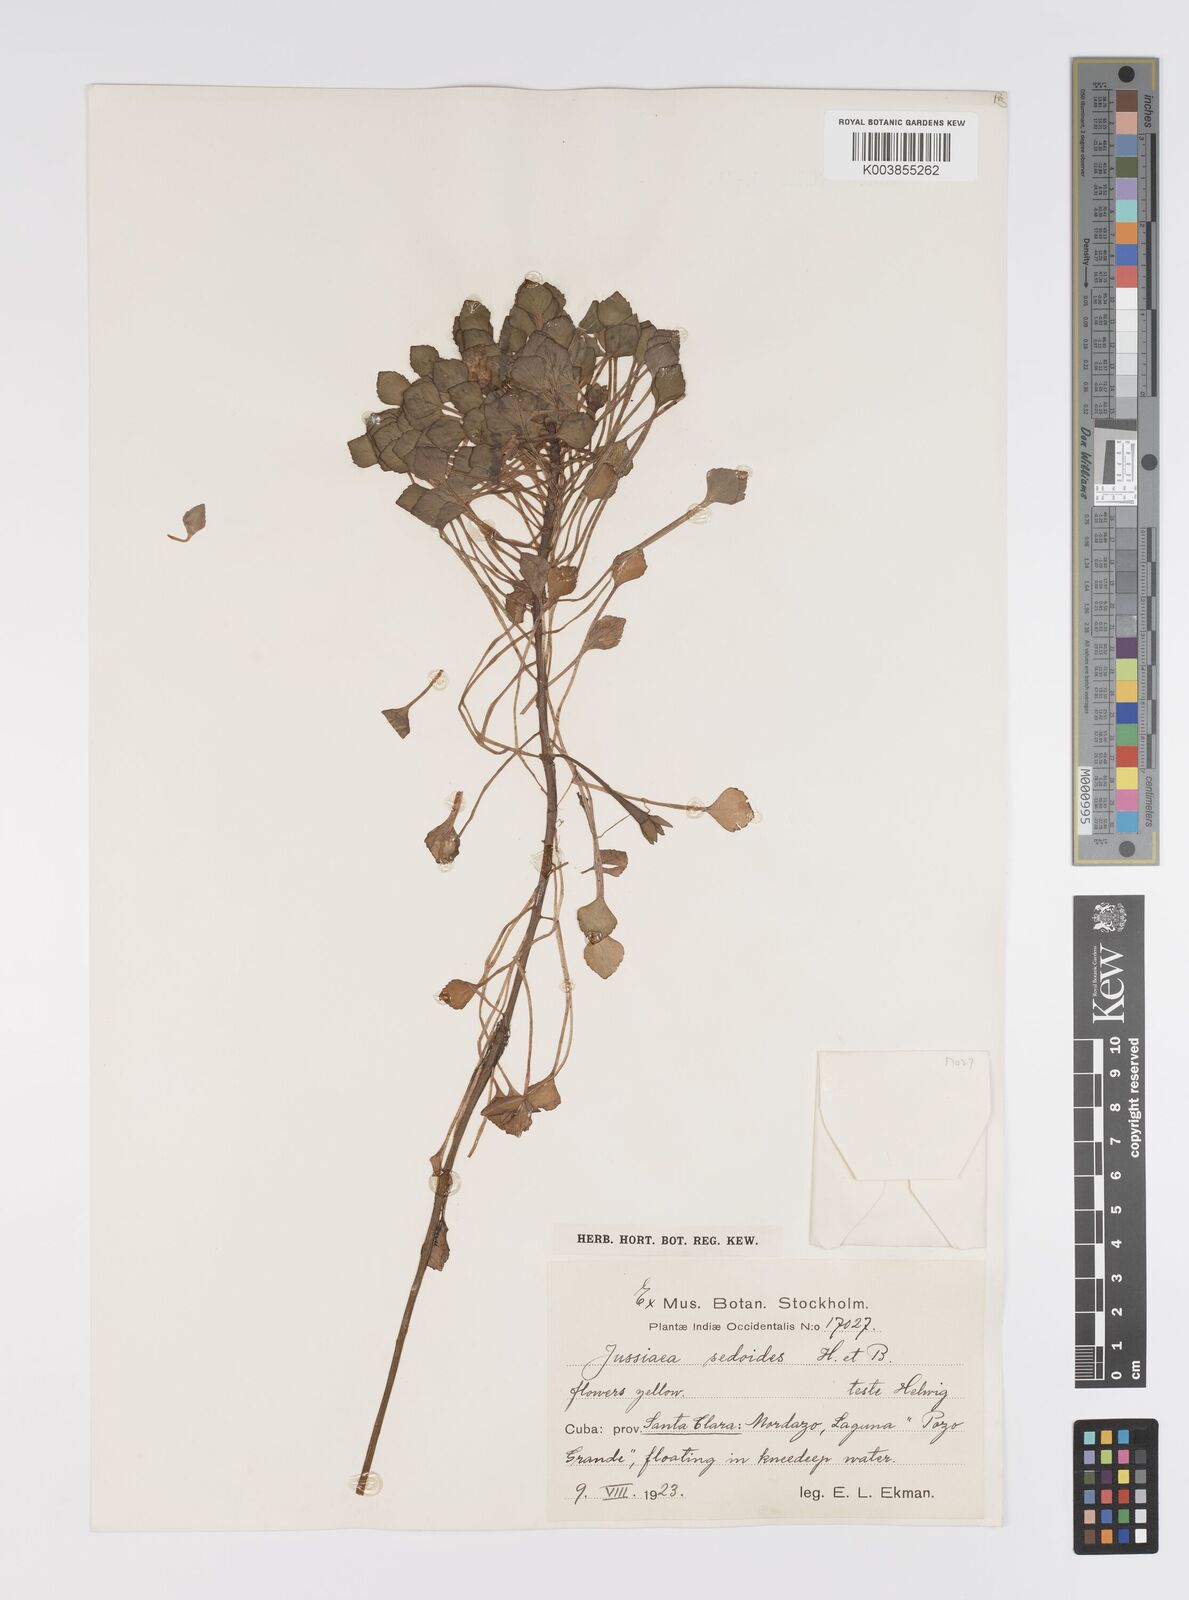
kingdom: Plantae
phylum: Tracheophyta
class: Magnoliopsida
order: Myrtales
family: Onagraceae
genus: Ludwigia
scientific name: Ludwigia sedoides
